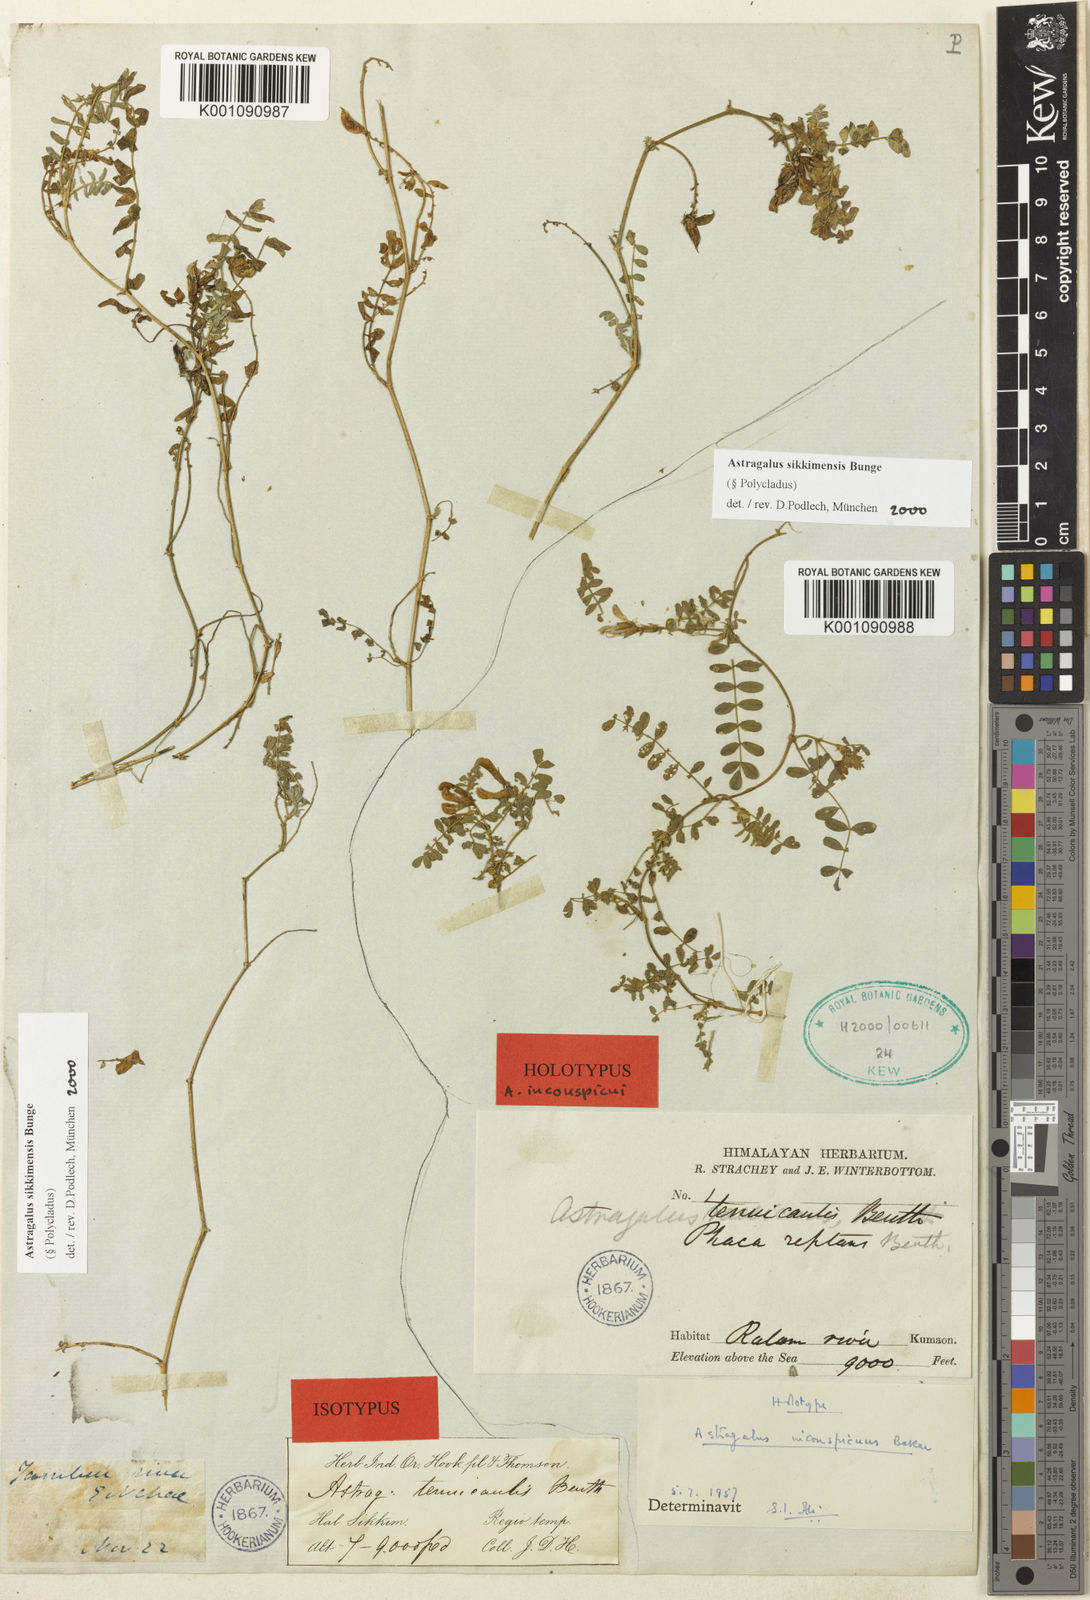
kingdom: Plantae
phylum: Tracheophyta
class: Magnoliopsida
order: Fabales
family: Fabaceae
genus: Astragalus
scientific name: Astragalus
